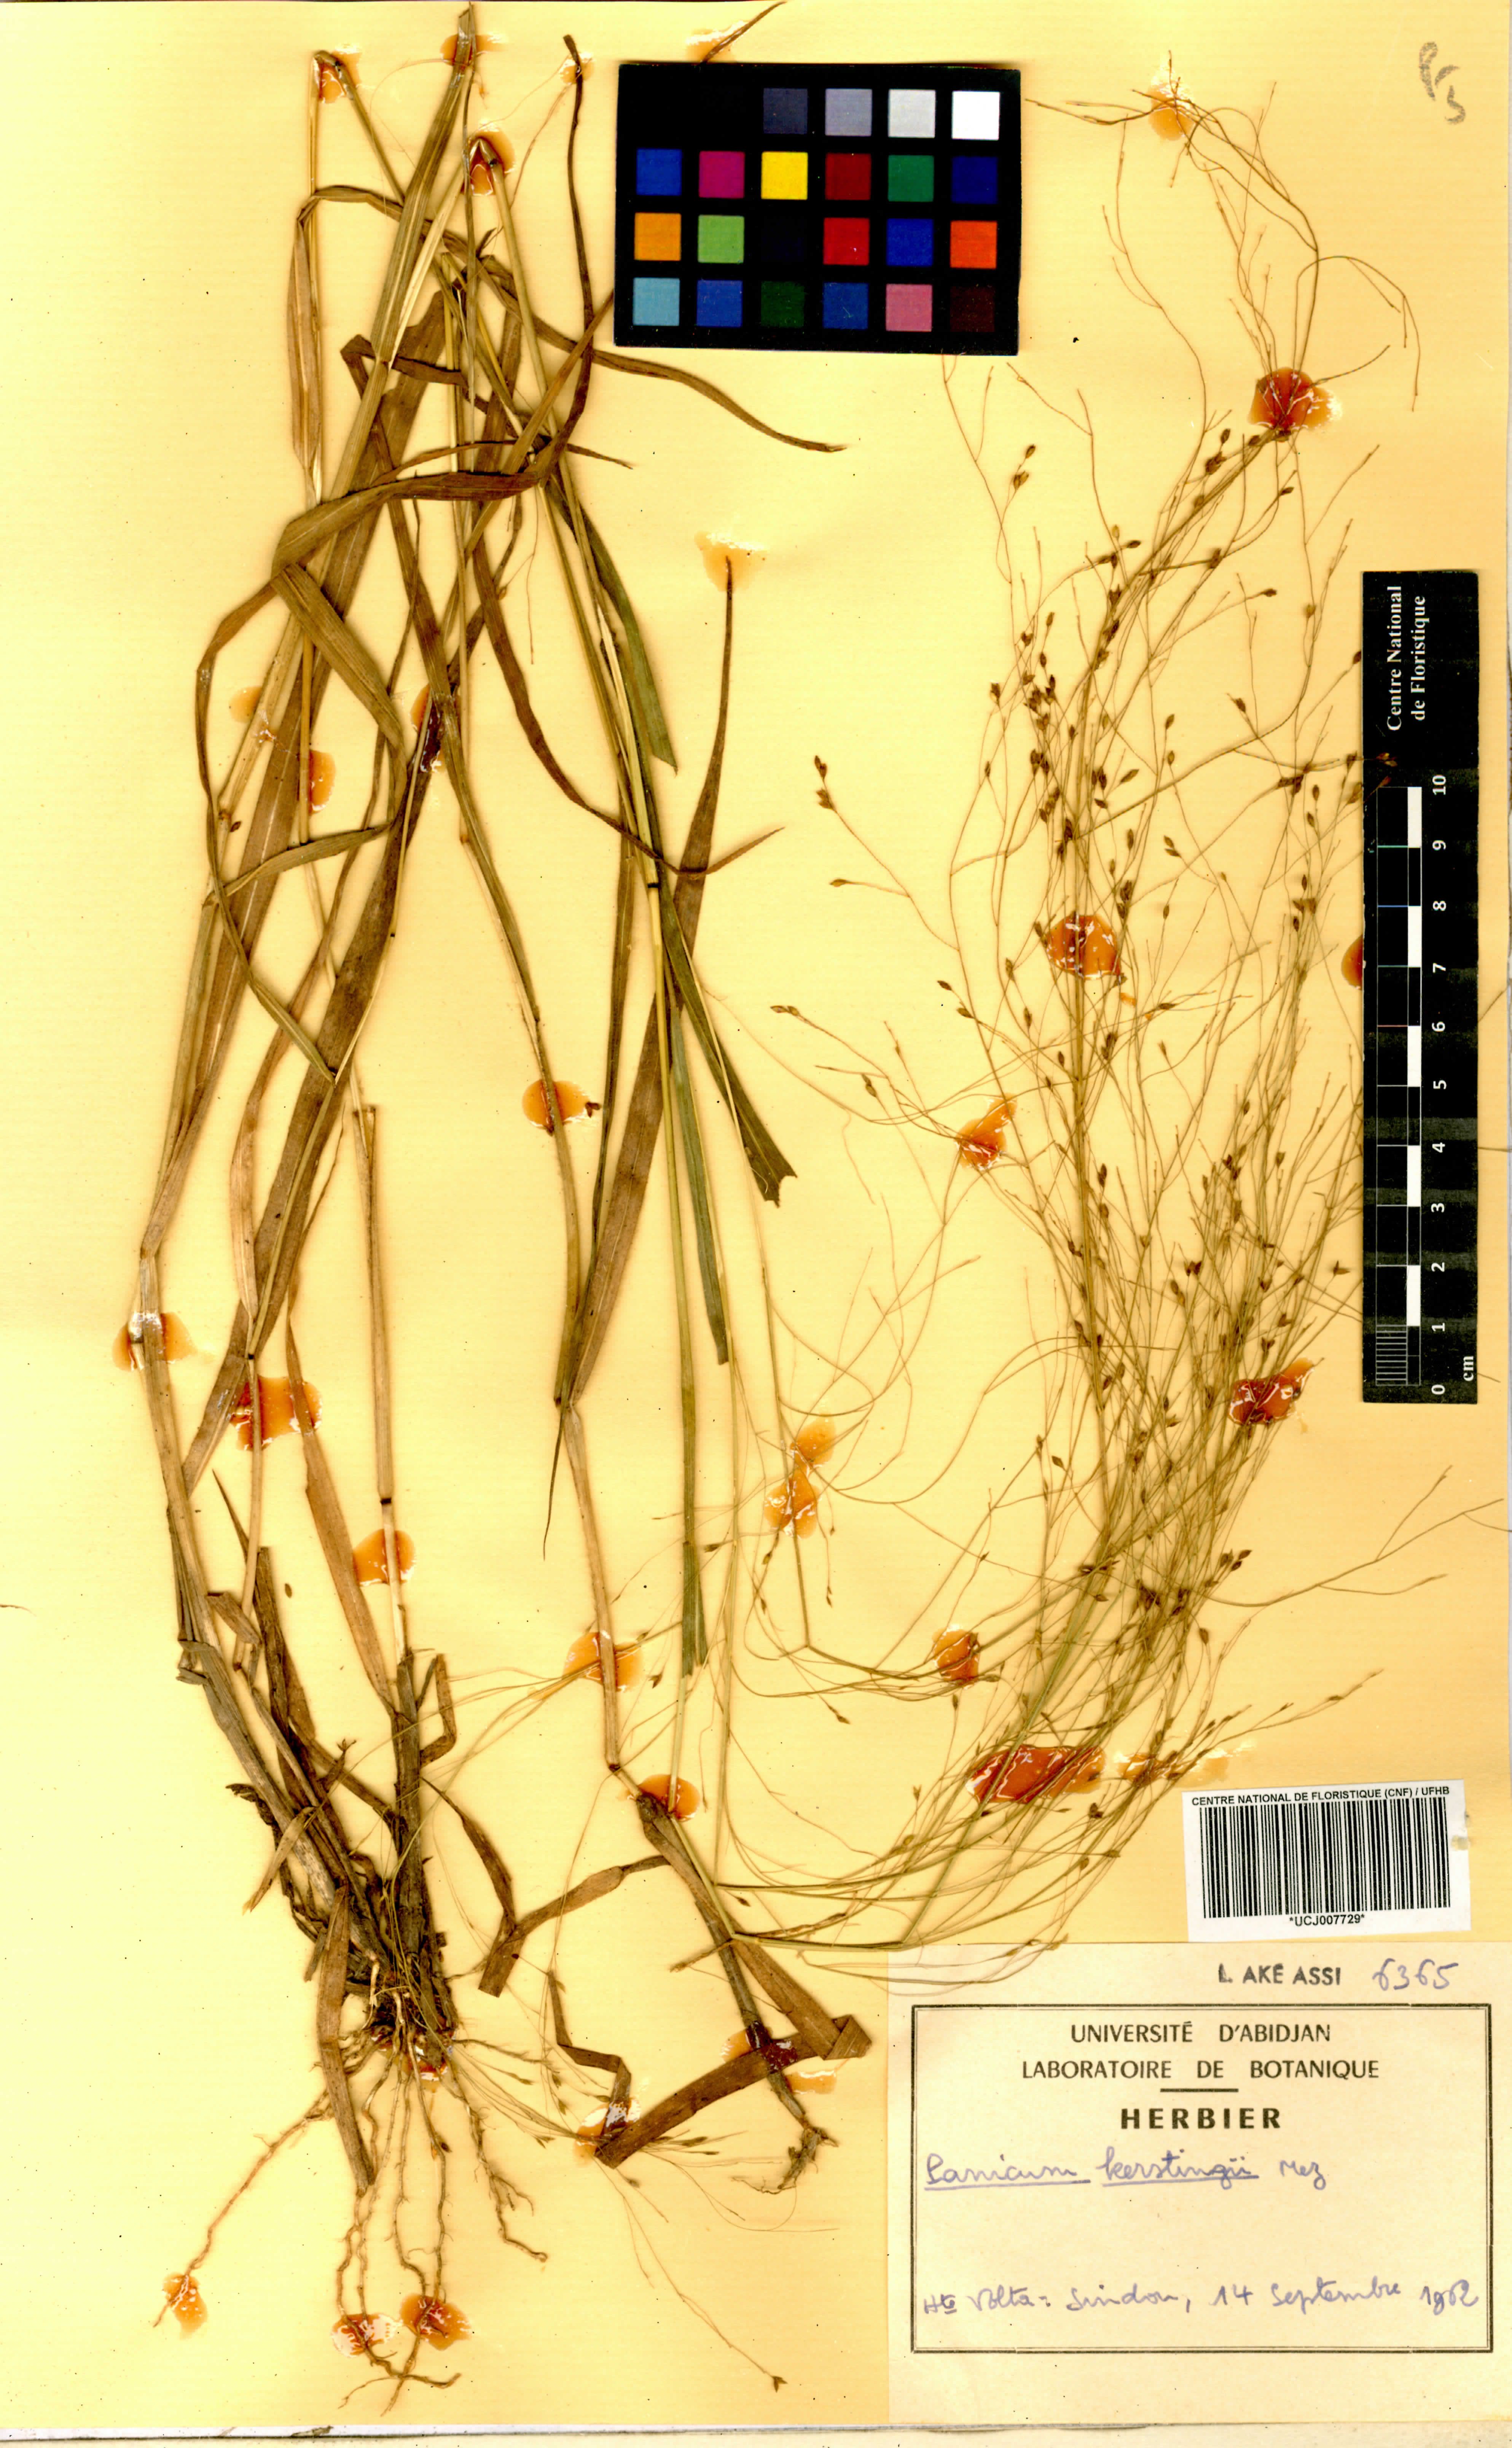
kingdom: Plantae
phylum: Tracheophyta
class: Liliopsida
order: Poales
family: Poaceae
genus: Panicum
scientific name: Panicum pansum
